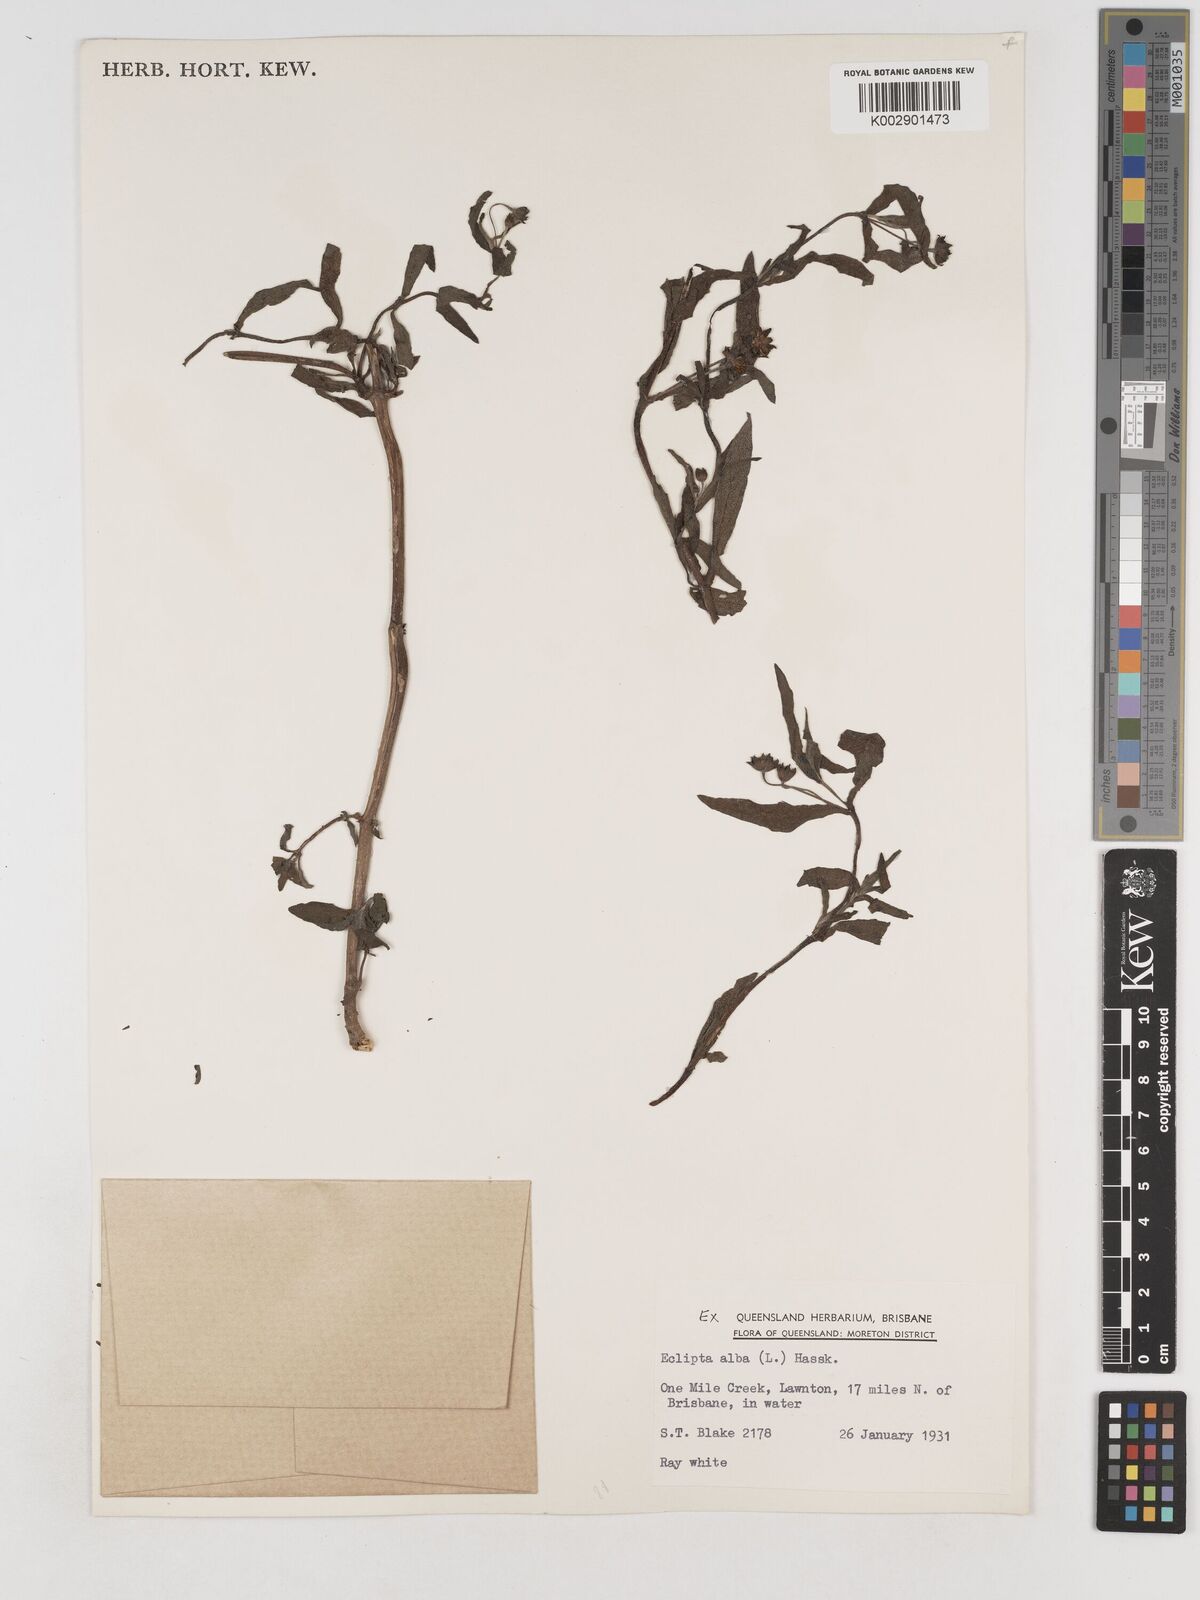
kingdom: Plantae
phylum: Tracheophyta
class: Magnoliopsida
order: Asterales
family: Asteraceae
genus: Eclipta
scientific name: Eclipta alba
